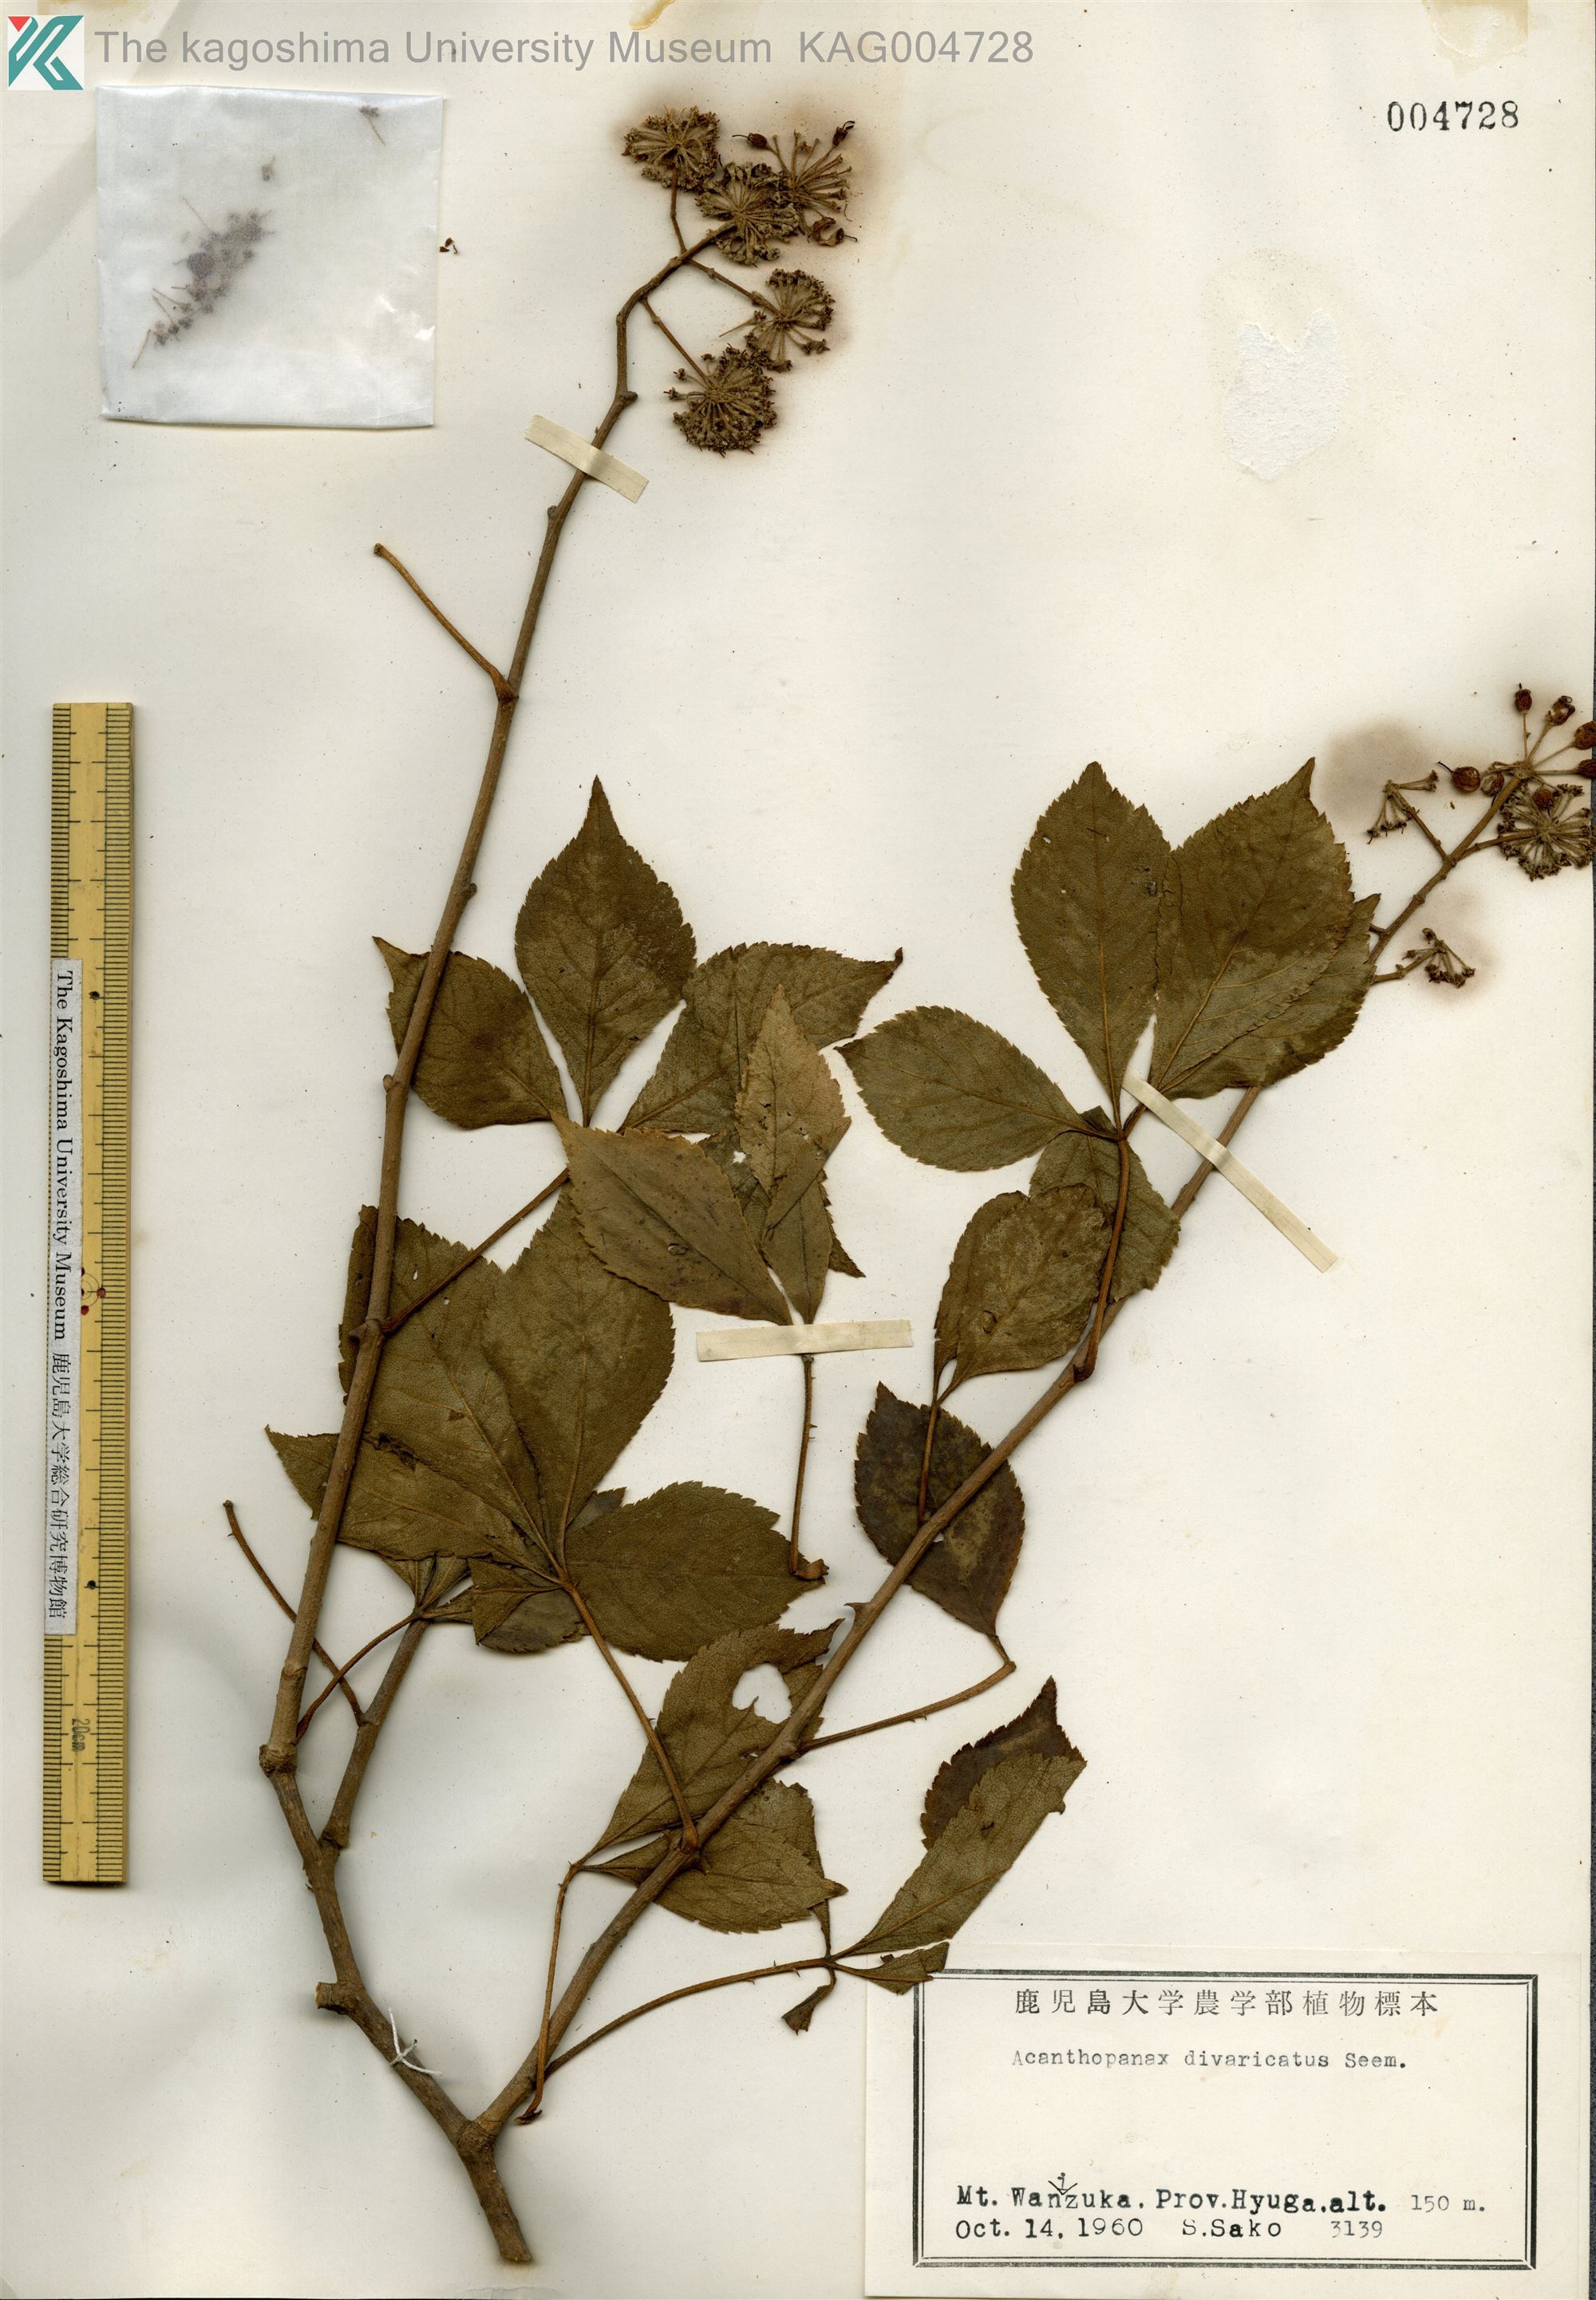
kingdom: Plantae
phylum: Tracheophyta
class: Magnoliopsida
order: Apiales
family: Araliaceae
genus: Eleutherococcus
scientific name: Eleutherococcus divaricatus
